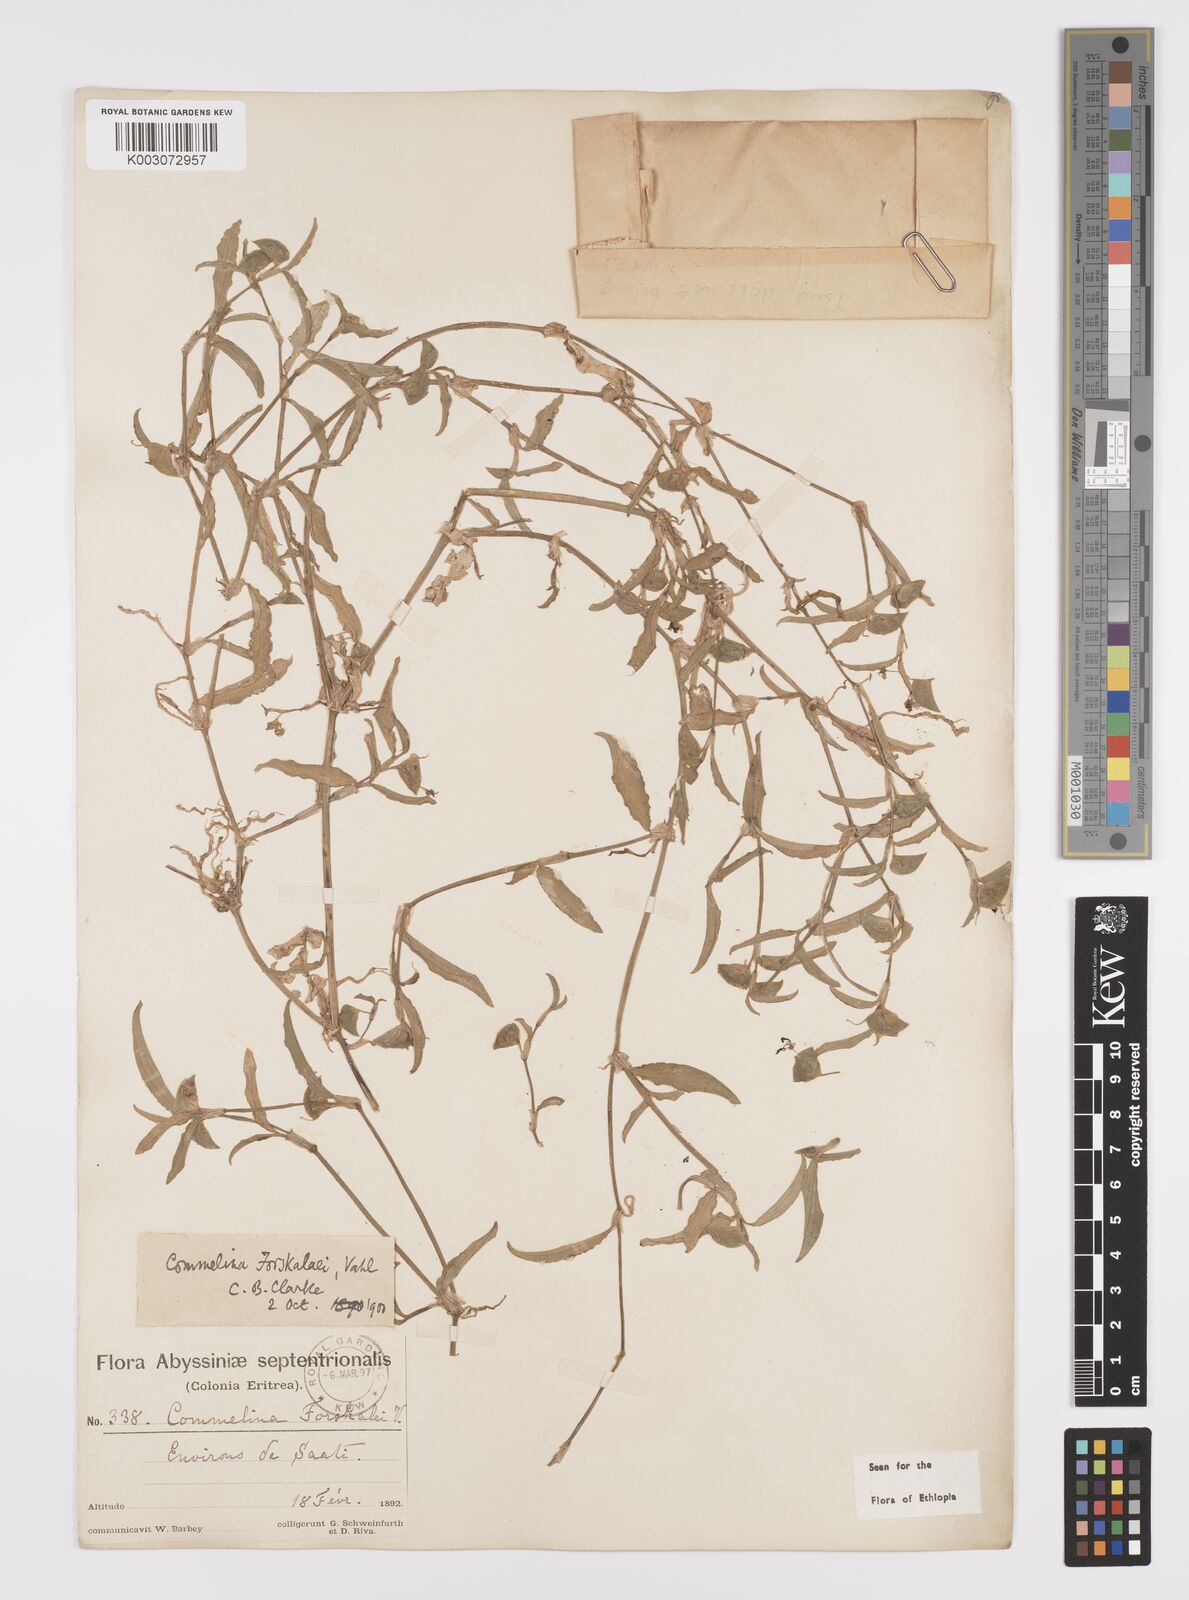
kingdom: Plantae
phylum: Tracheophyta
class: Liliopsida
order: Commelinales
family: Commelinaceae
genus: Commelina
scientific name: Commelina forskaolii
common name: Rat's ear
